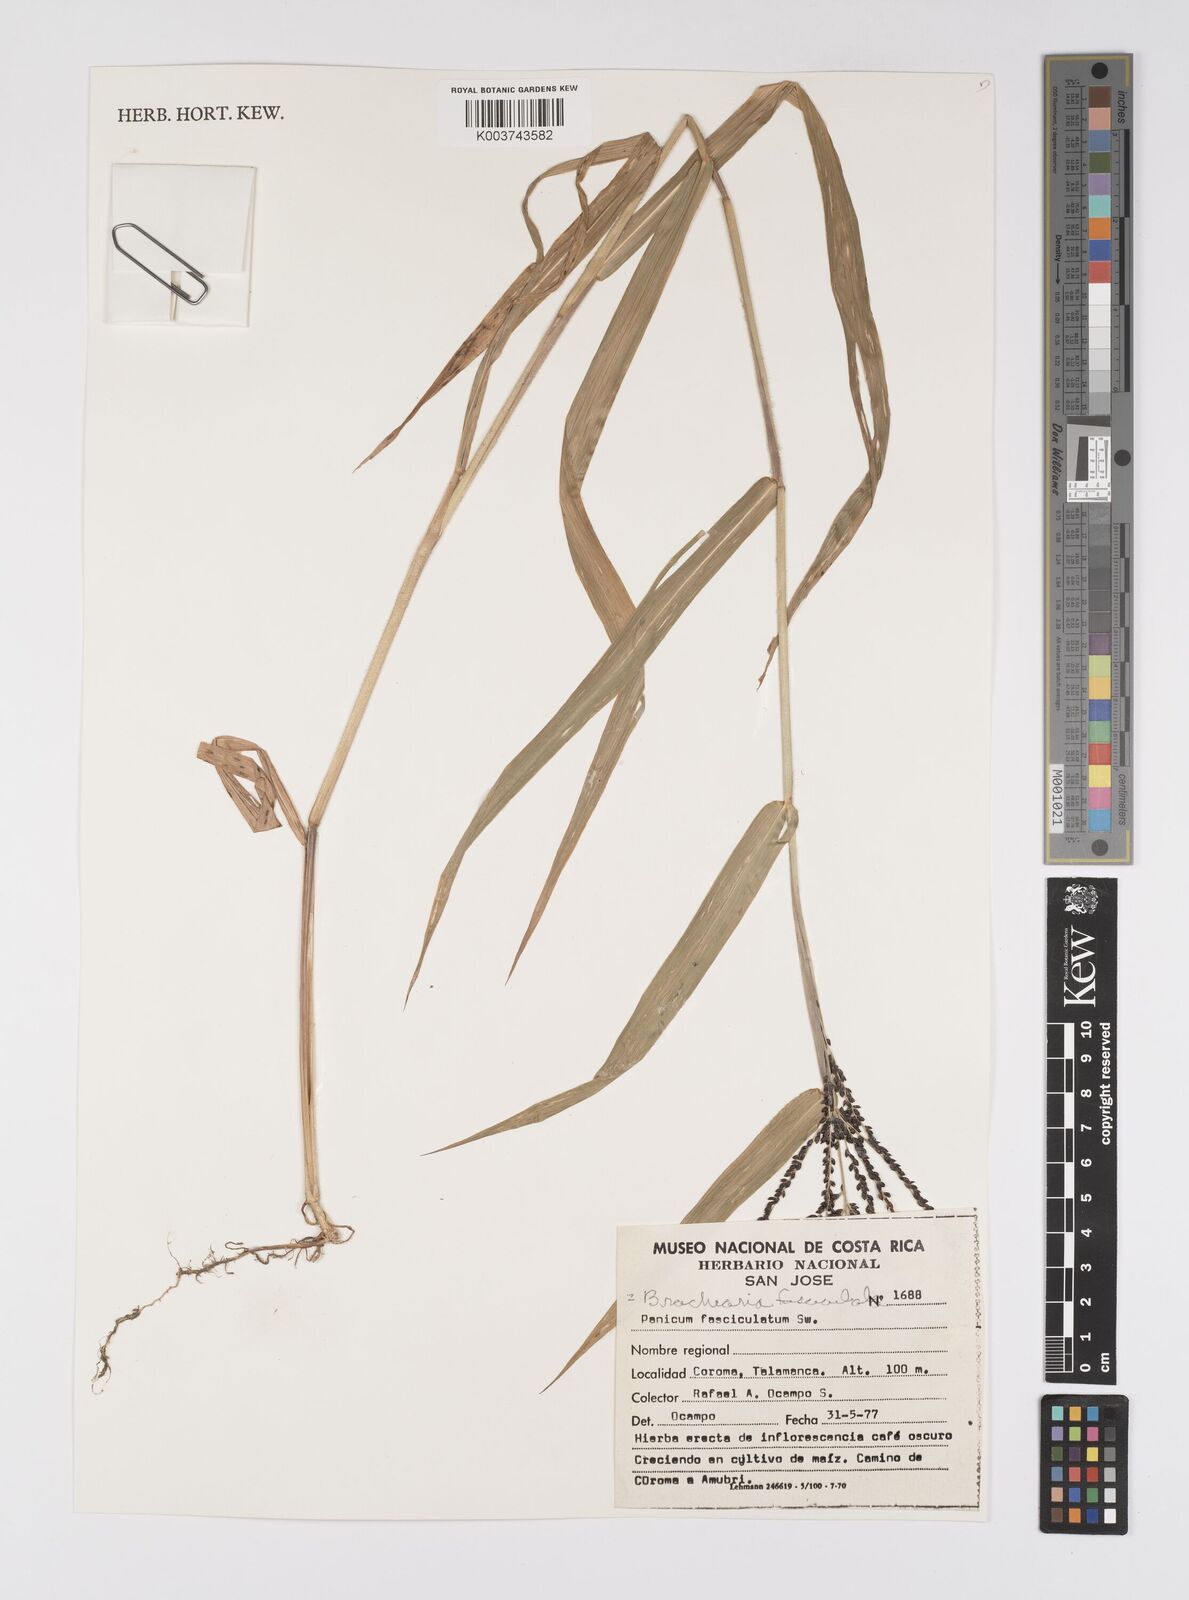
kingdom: Plantae
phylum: Tracheophyta
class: Liliopsida
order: Poales
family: Poaceae
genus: Urochloa
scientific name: Urochloa fusca
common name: Browntop signal grass
